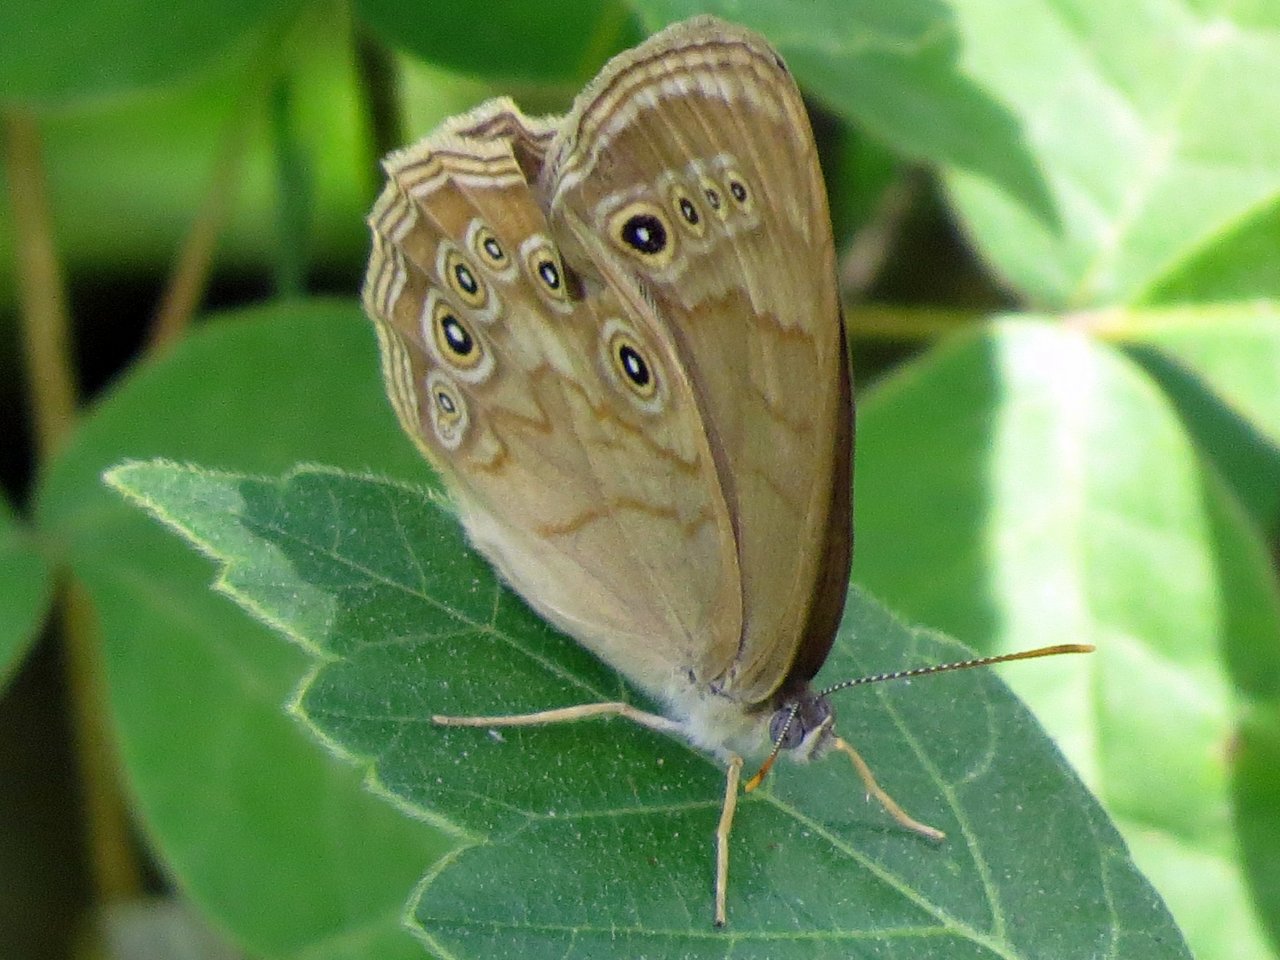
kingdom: Animalia
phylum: Arthropoda
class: Insecta
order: Lepidoptera
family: Nymphalidae
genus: Lethe
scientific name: Lethe eurydice
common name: Eyed Brown
